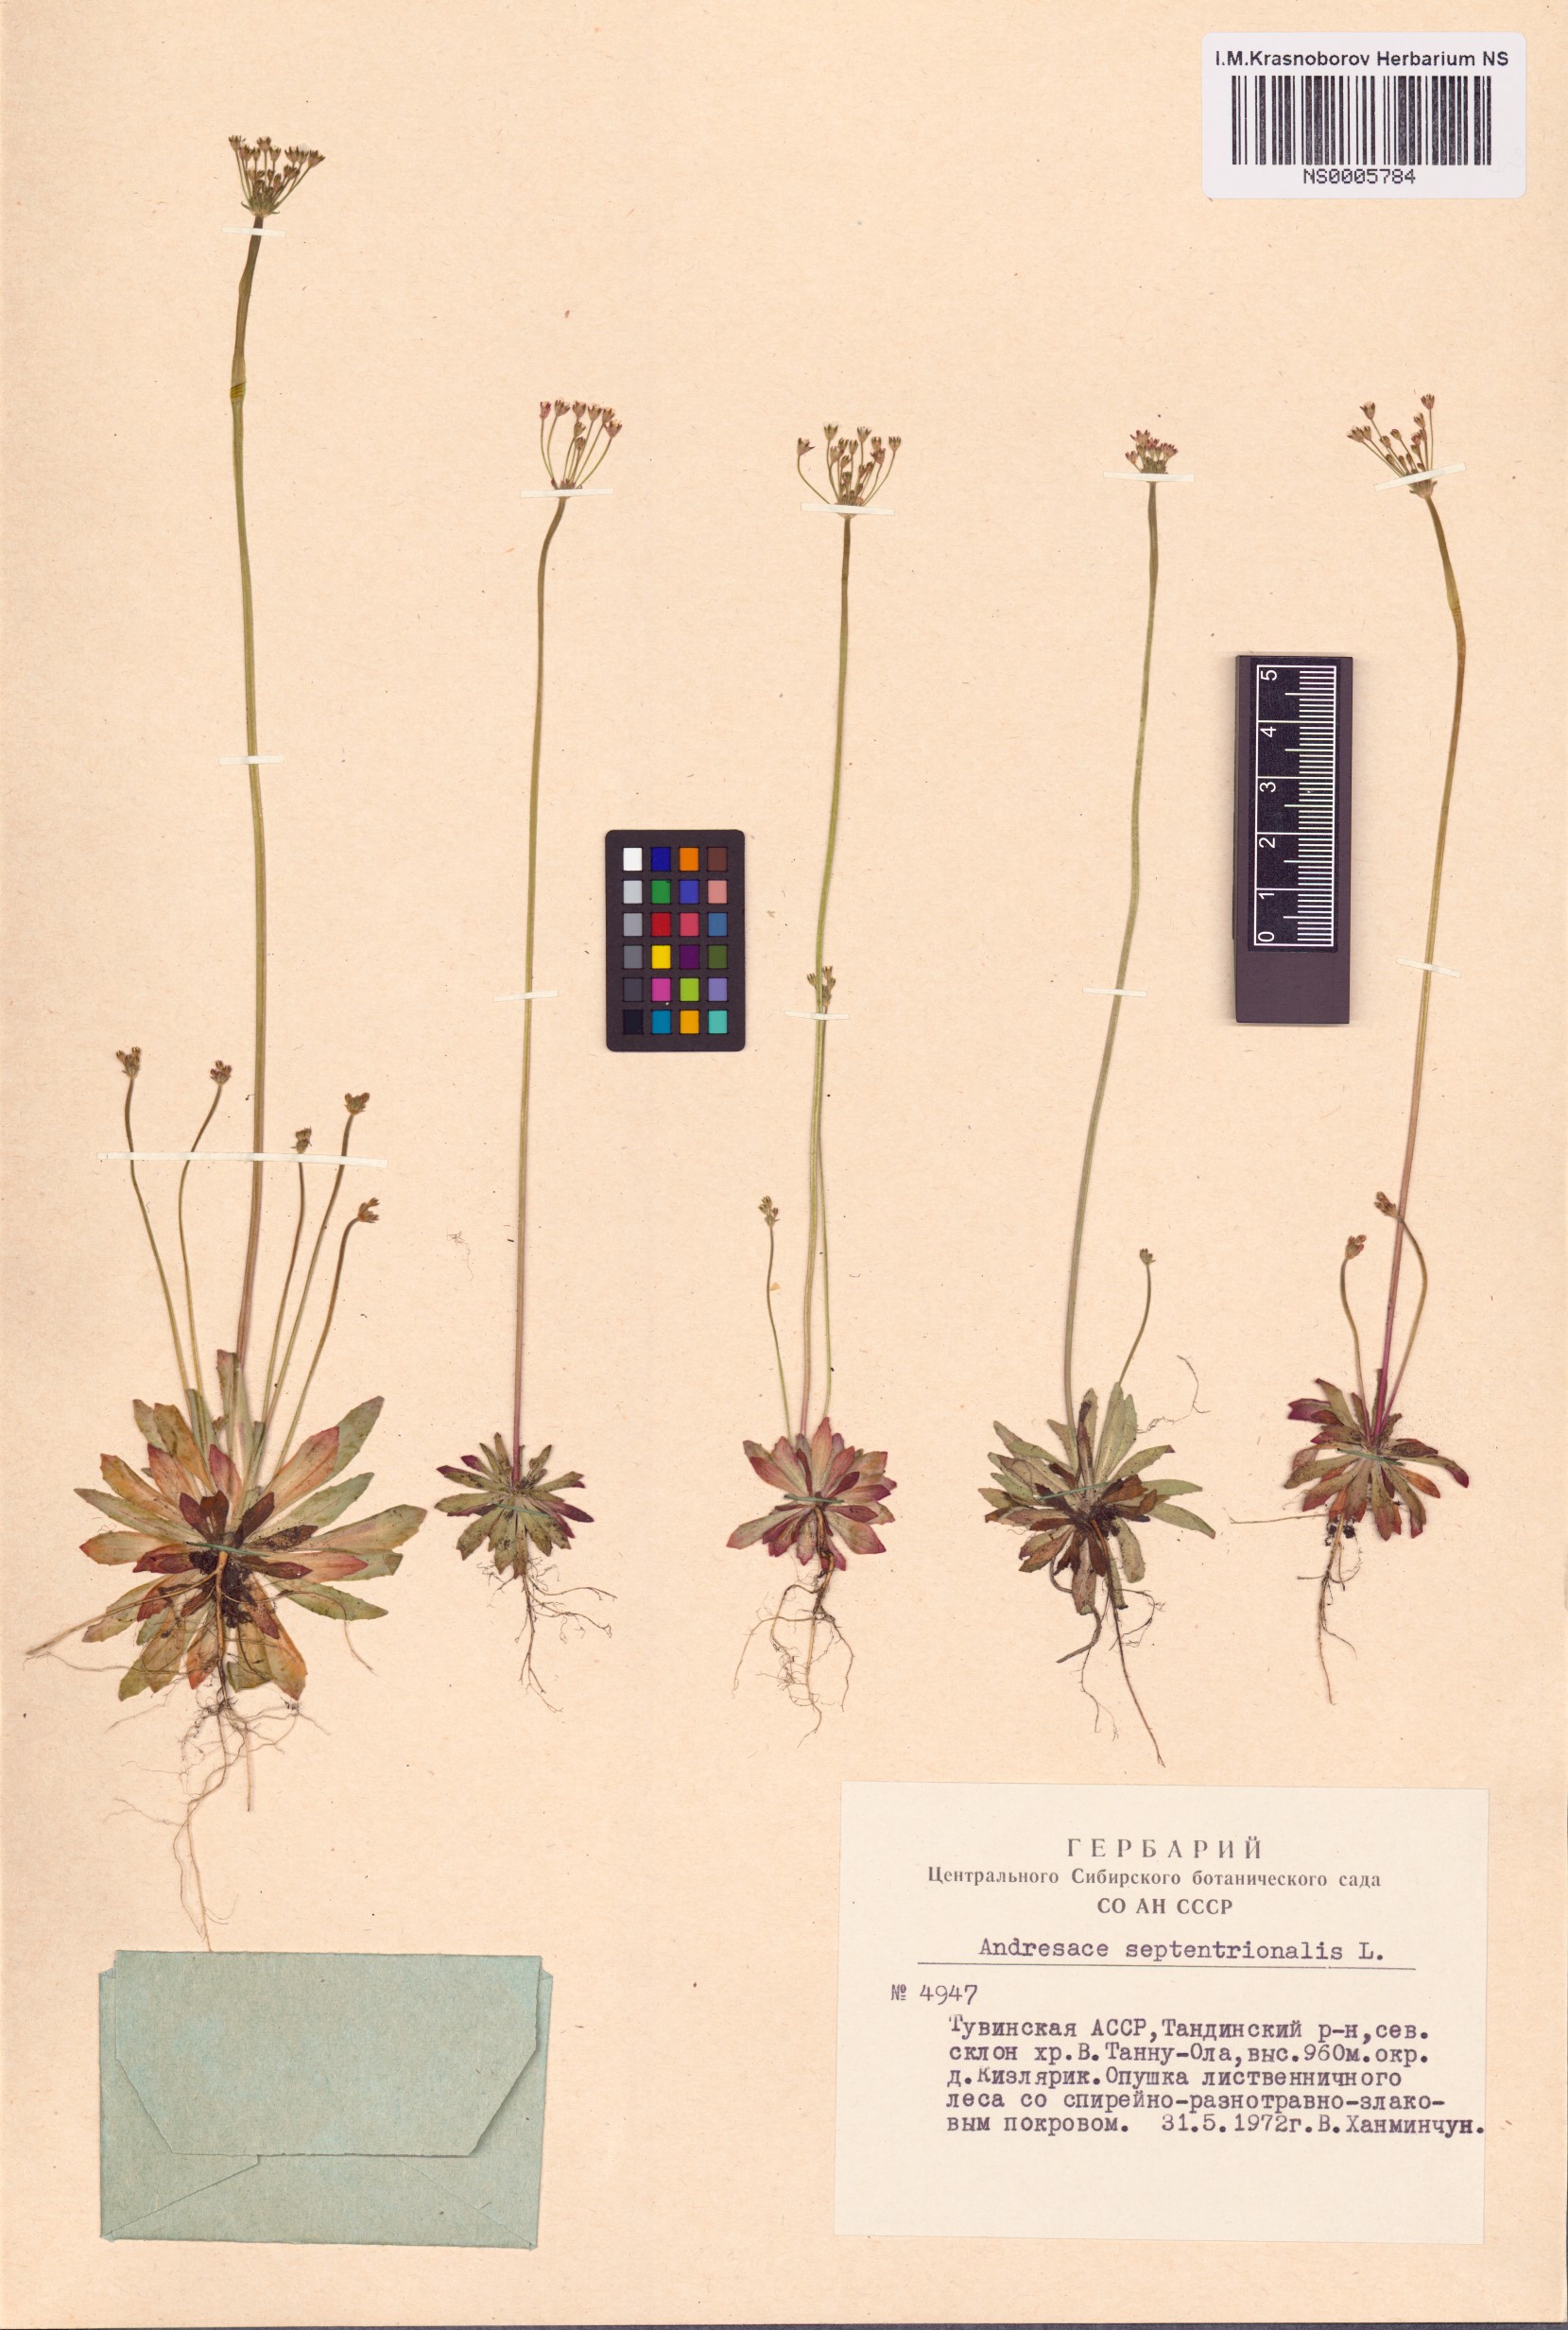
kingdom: Plantae
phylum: Tracheophyta
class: Magnoliopsida
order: Ericales
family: Primulaceae
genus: Androsace
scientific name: Androsace septentrionalis
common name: Hairy northern fairy-candelabra
